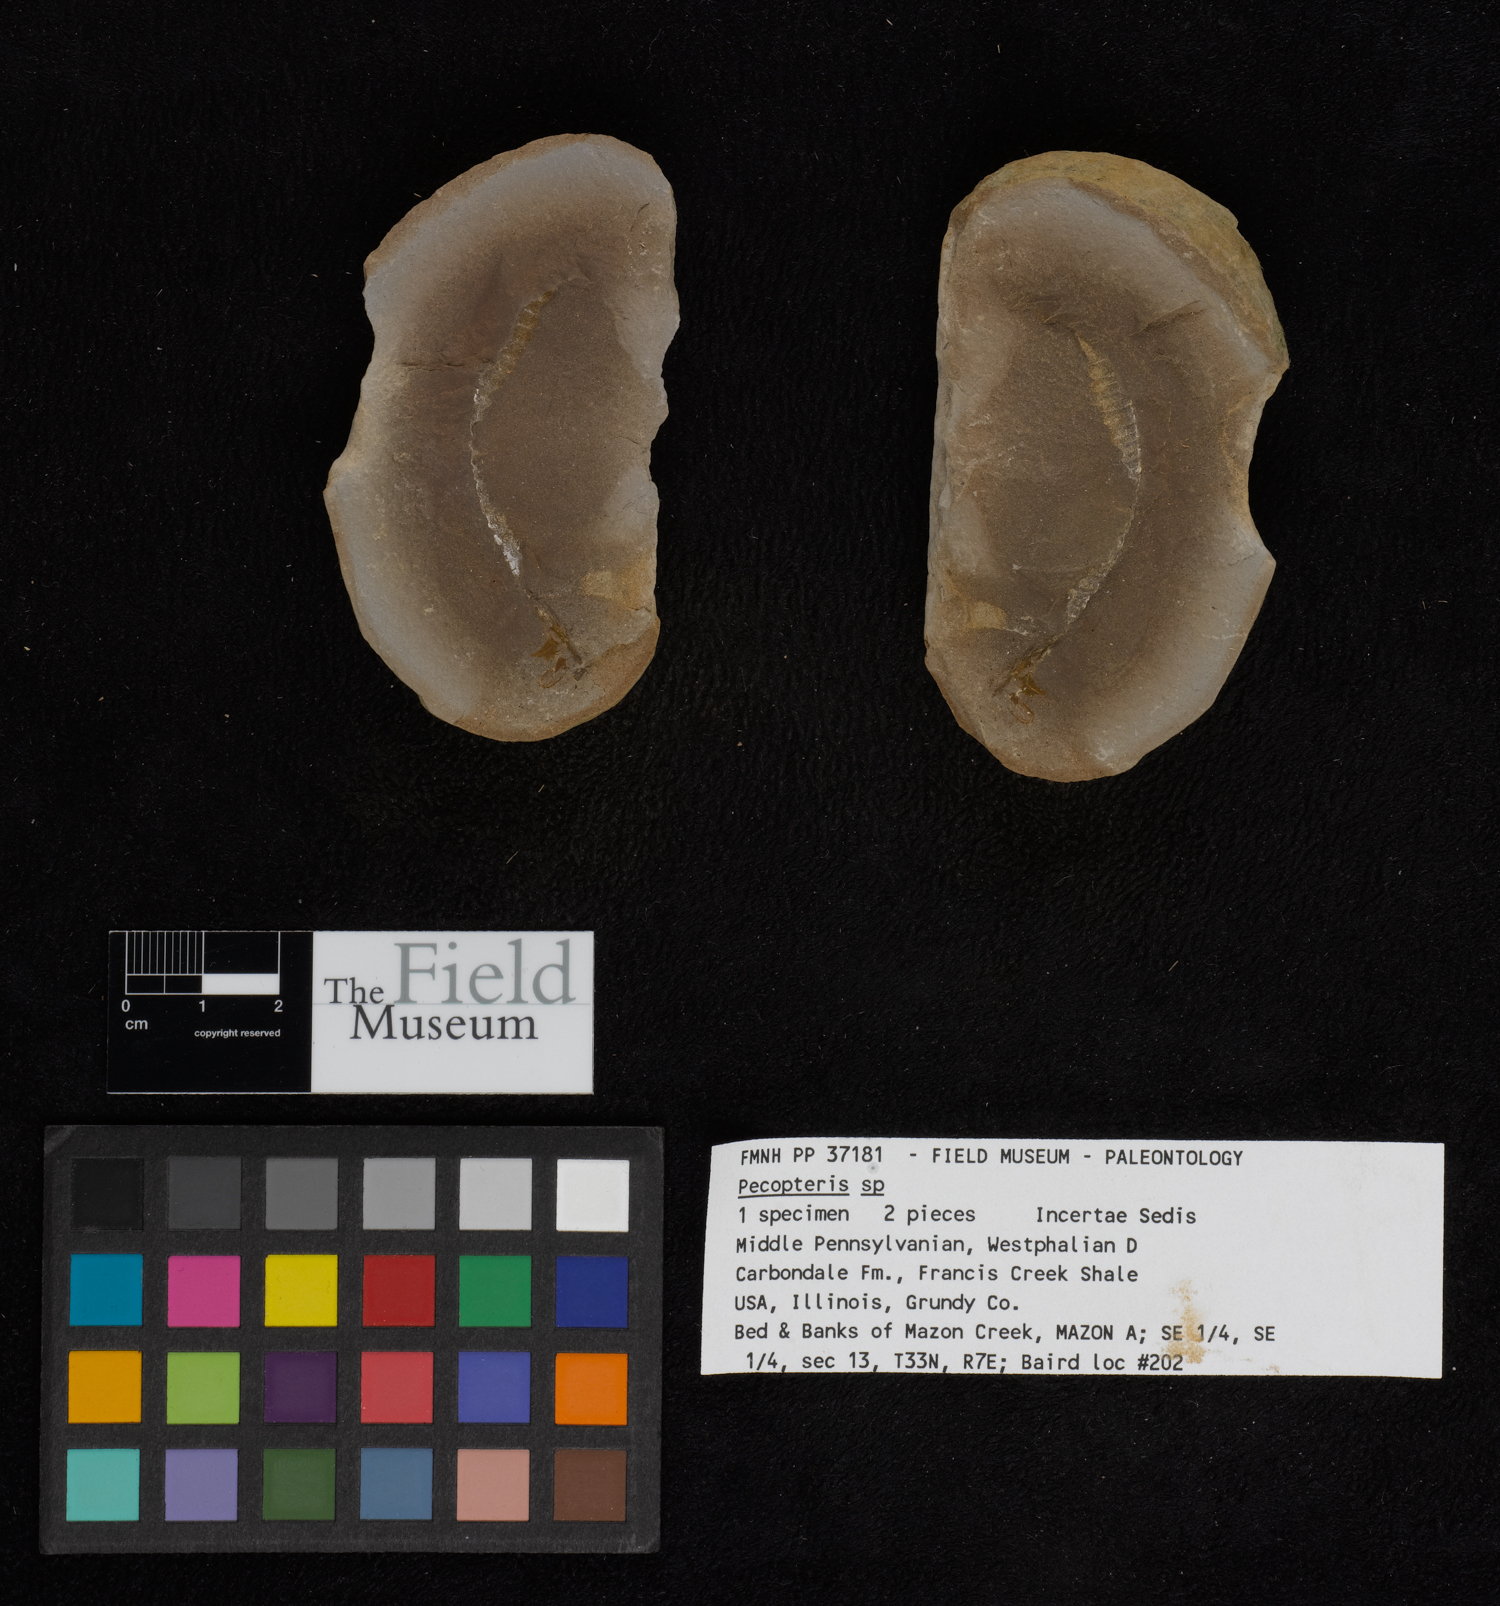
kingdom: Plantae
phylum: Tracheophyta
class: Polypodiopsida
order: Marattiales
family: Asterothecaceae
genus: Pecopteris
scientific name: Pecopteris
